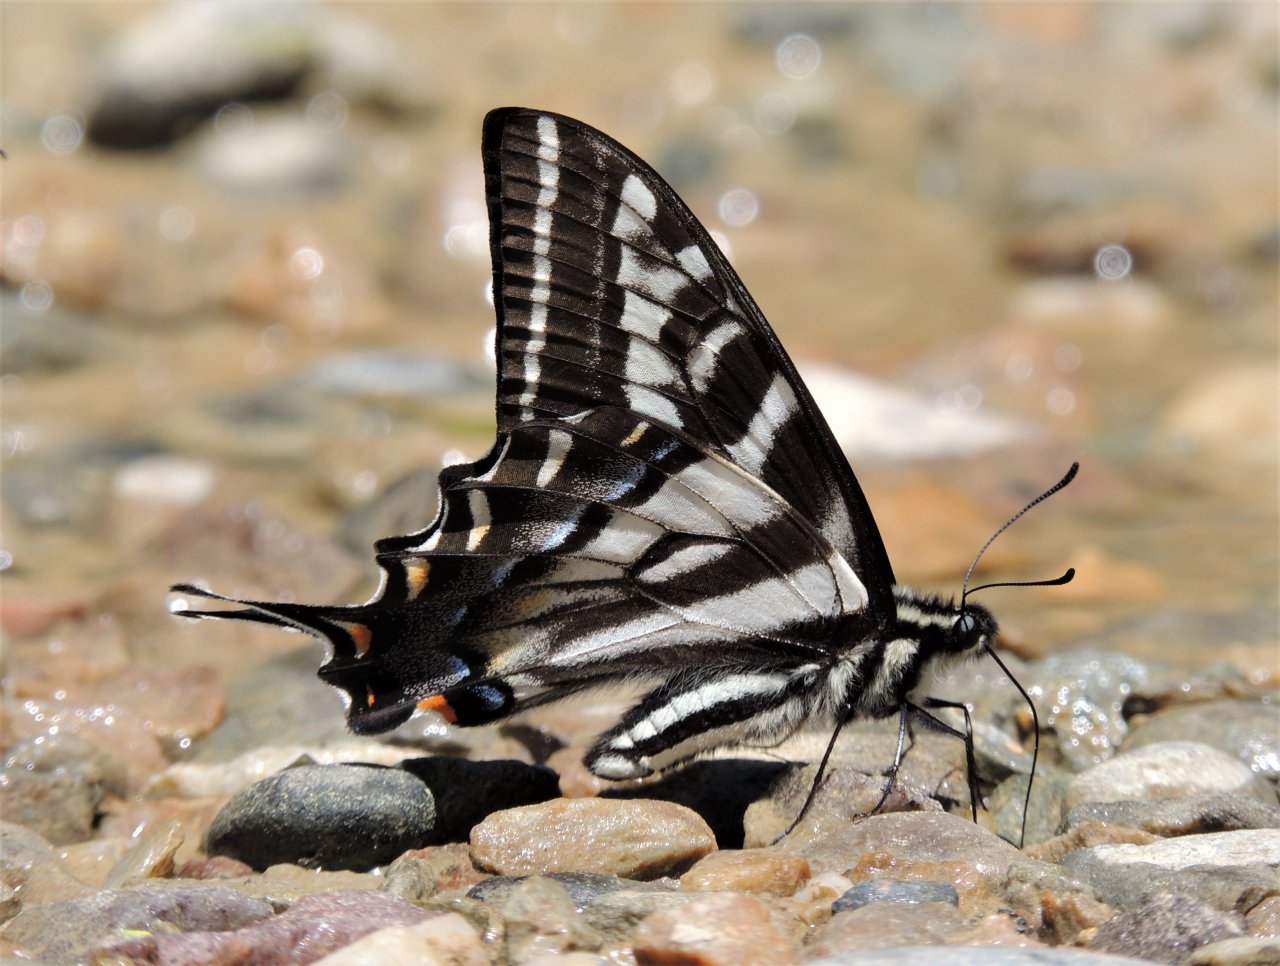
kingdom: Animalia
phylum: Arthropoda
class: Insecta
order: Lepidoptera
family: Papilionidae
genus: Pterourus
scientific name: Pterourus eurymedon
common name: Pale Swallowtail
